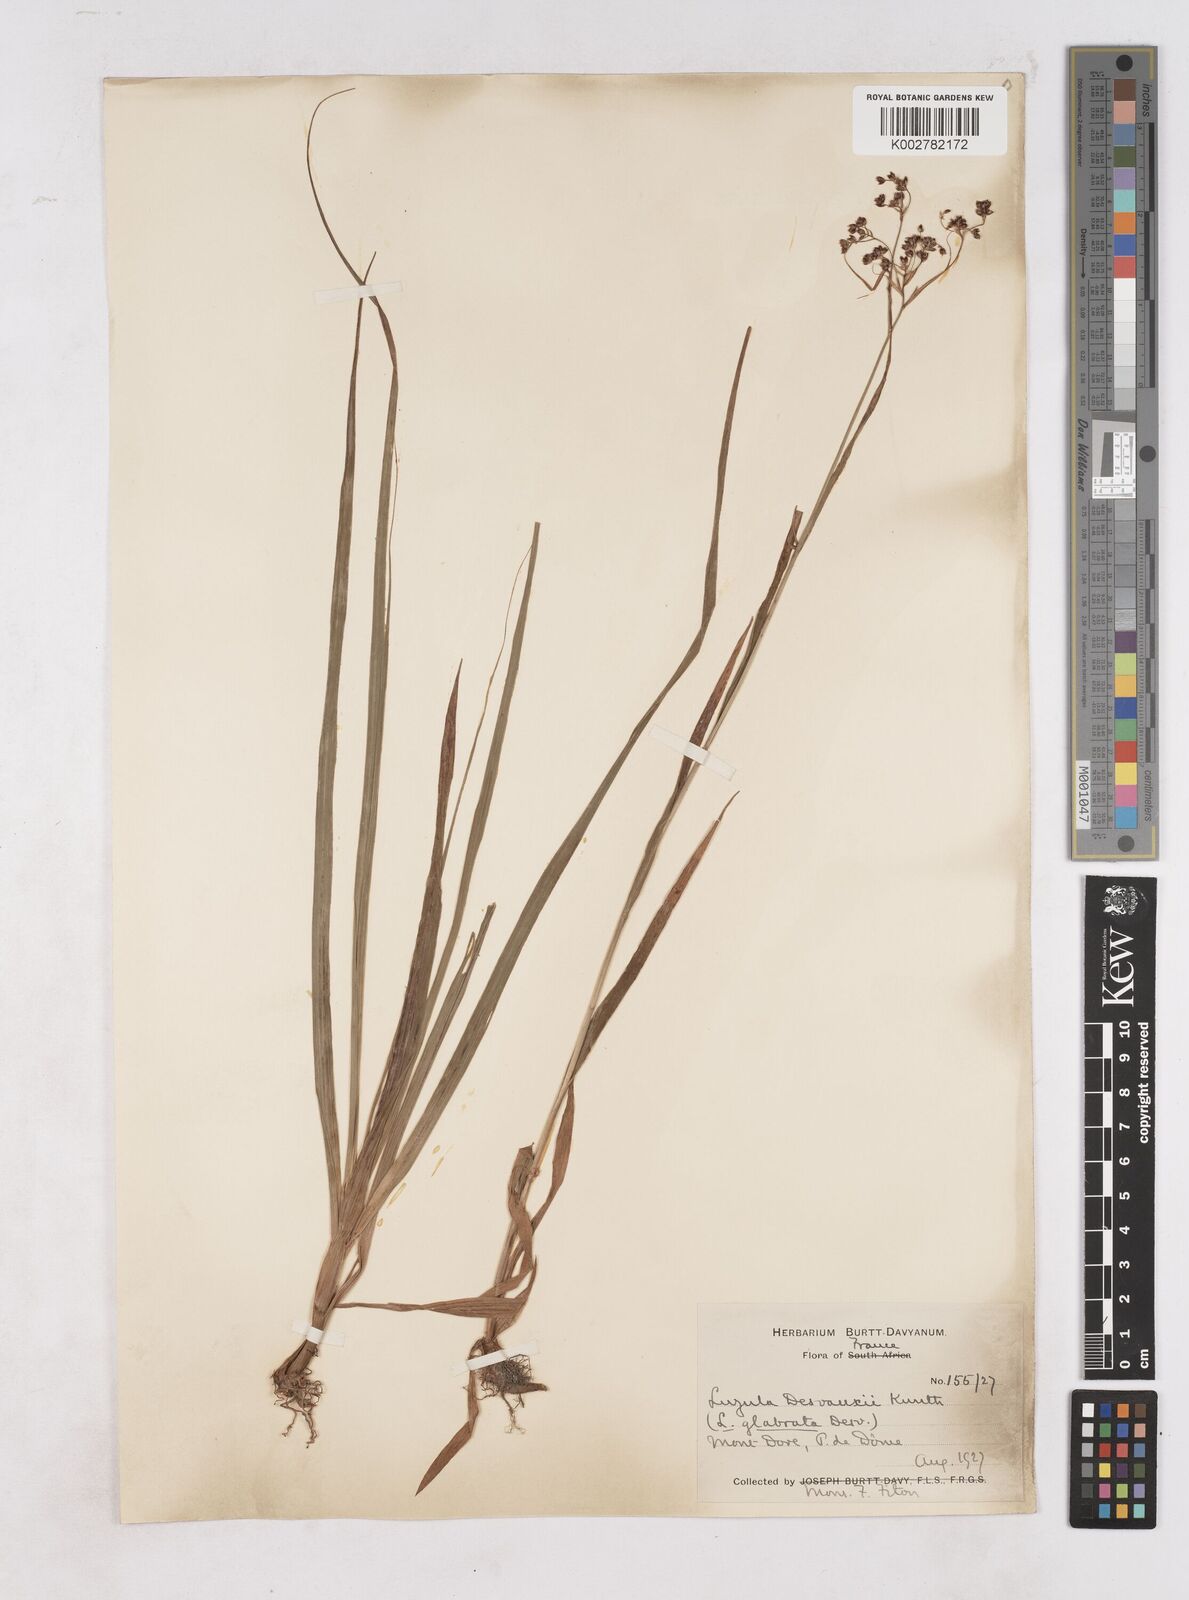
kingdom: Plantae
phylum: Tracheophyta
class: Liliopsida
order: Poales
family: Juncaceae
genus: Luzula
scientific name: Luzula glabrata
